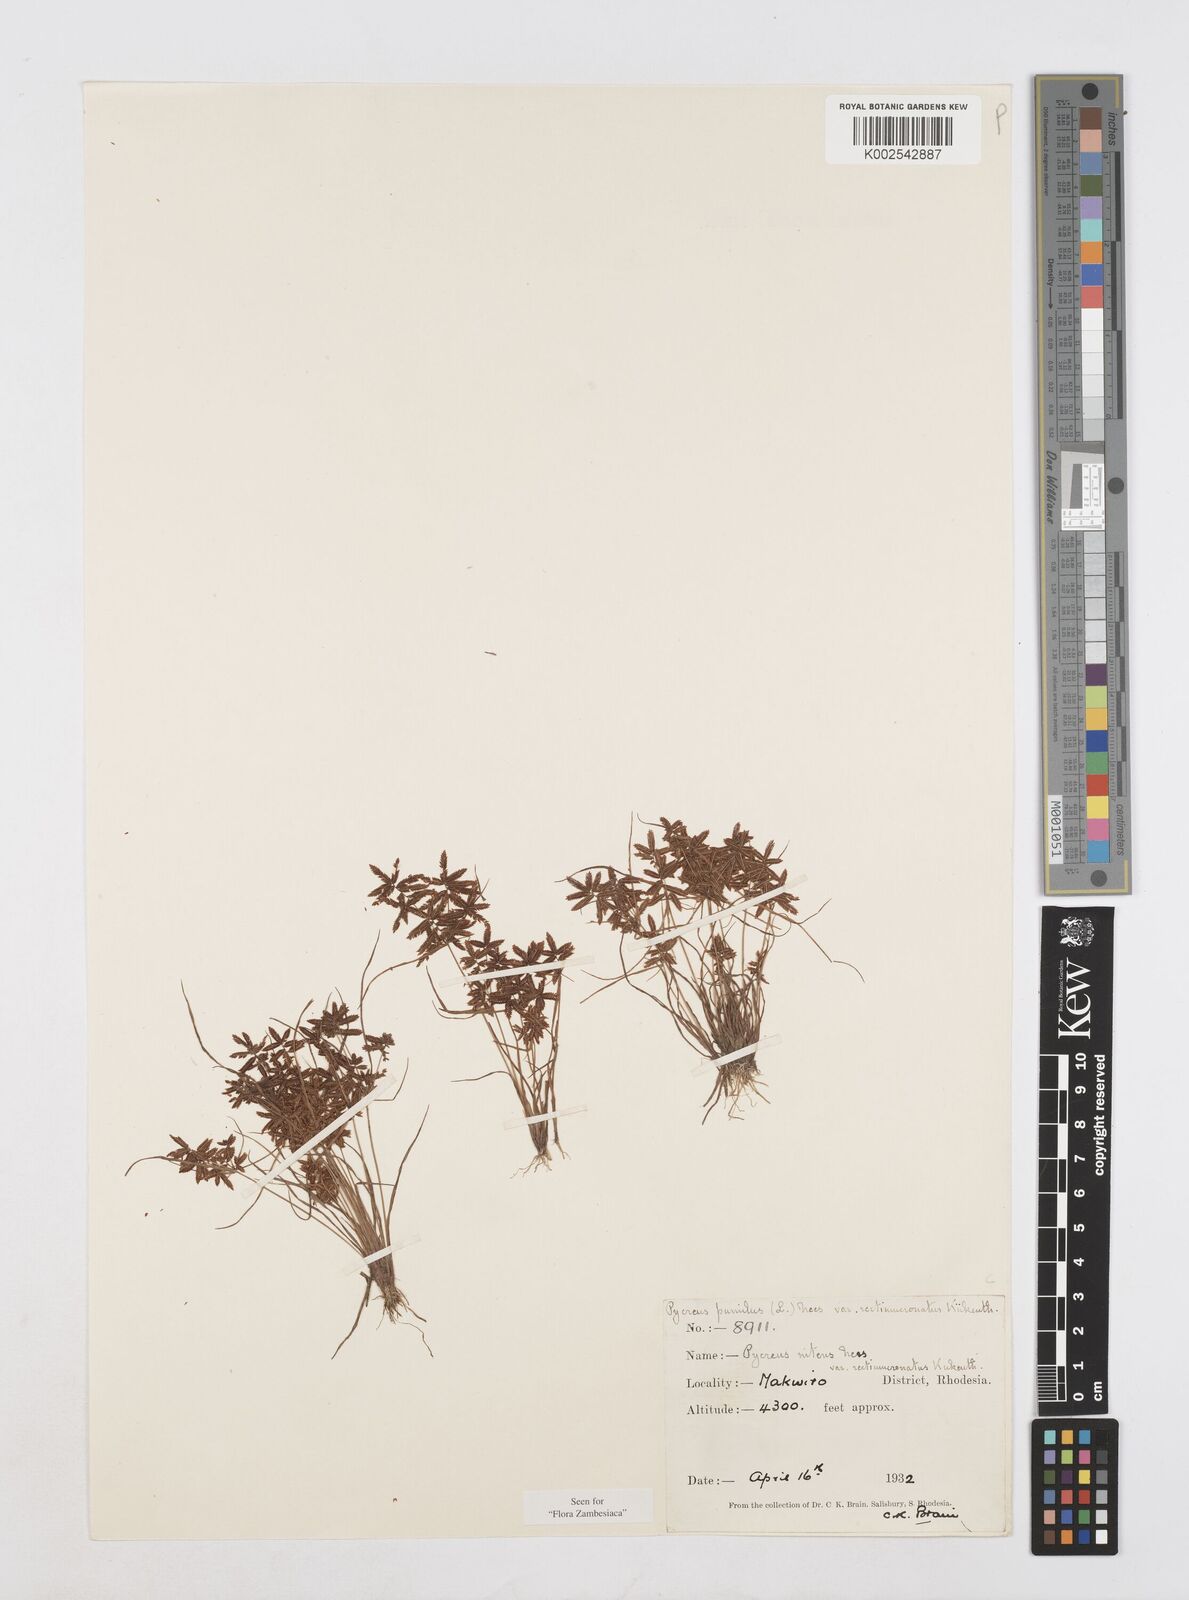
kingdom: Plantae
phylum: Tracheophyta
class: Liliopsida
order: Poales
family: Cyperaceae
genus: Cyperus
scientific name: Cyperus pumilus
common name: Low flatsedge
